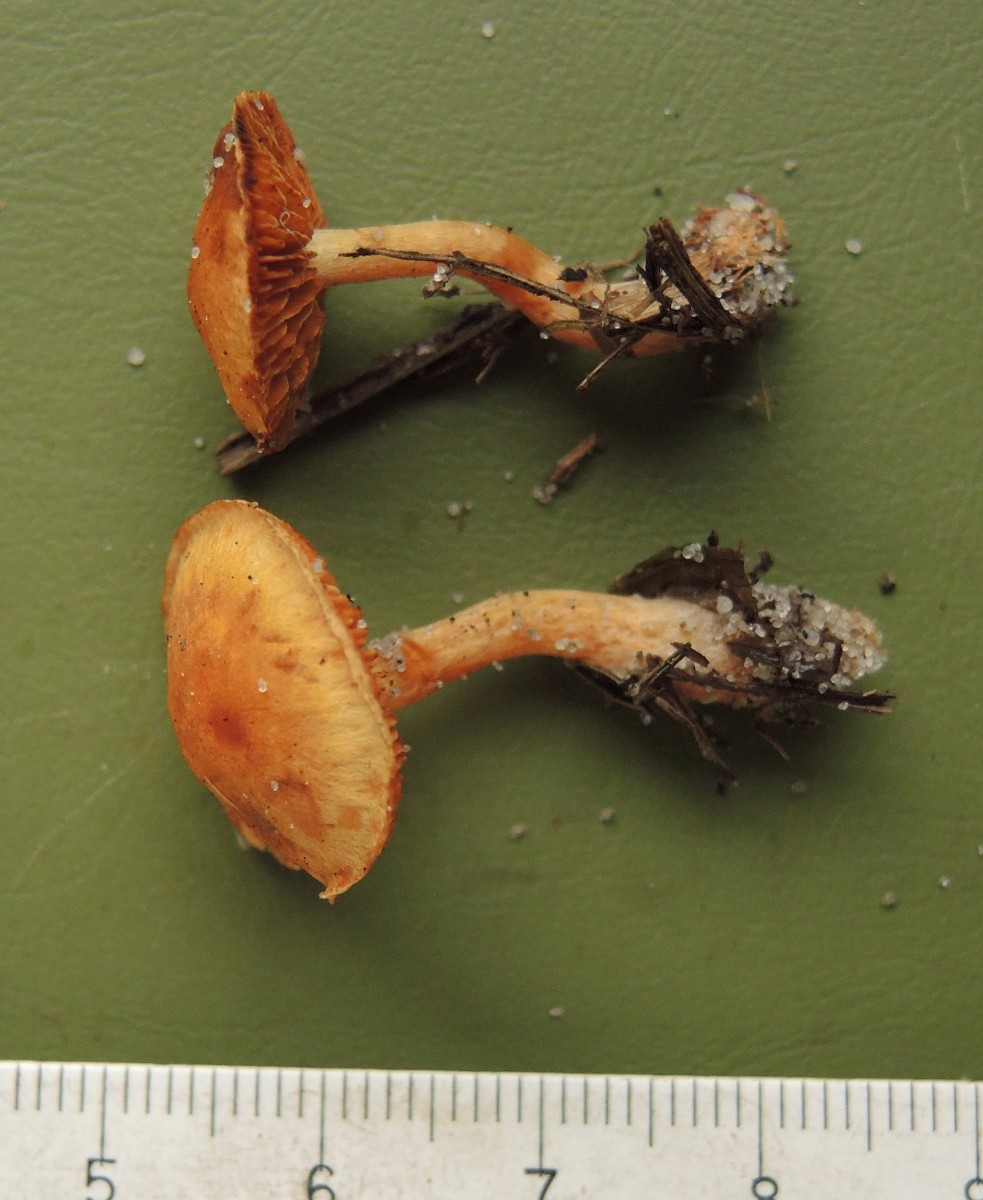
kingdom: Fungi
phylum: Basidiomycota
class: Agaricomycetes
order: Agaricales
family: Hymenogastraceae
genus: Gymnopilus
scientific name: Gymnopilus flavus
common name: græs-flammehat
